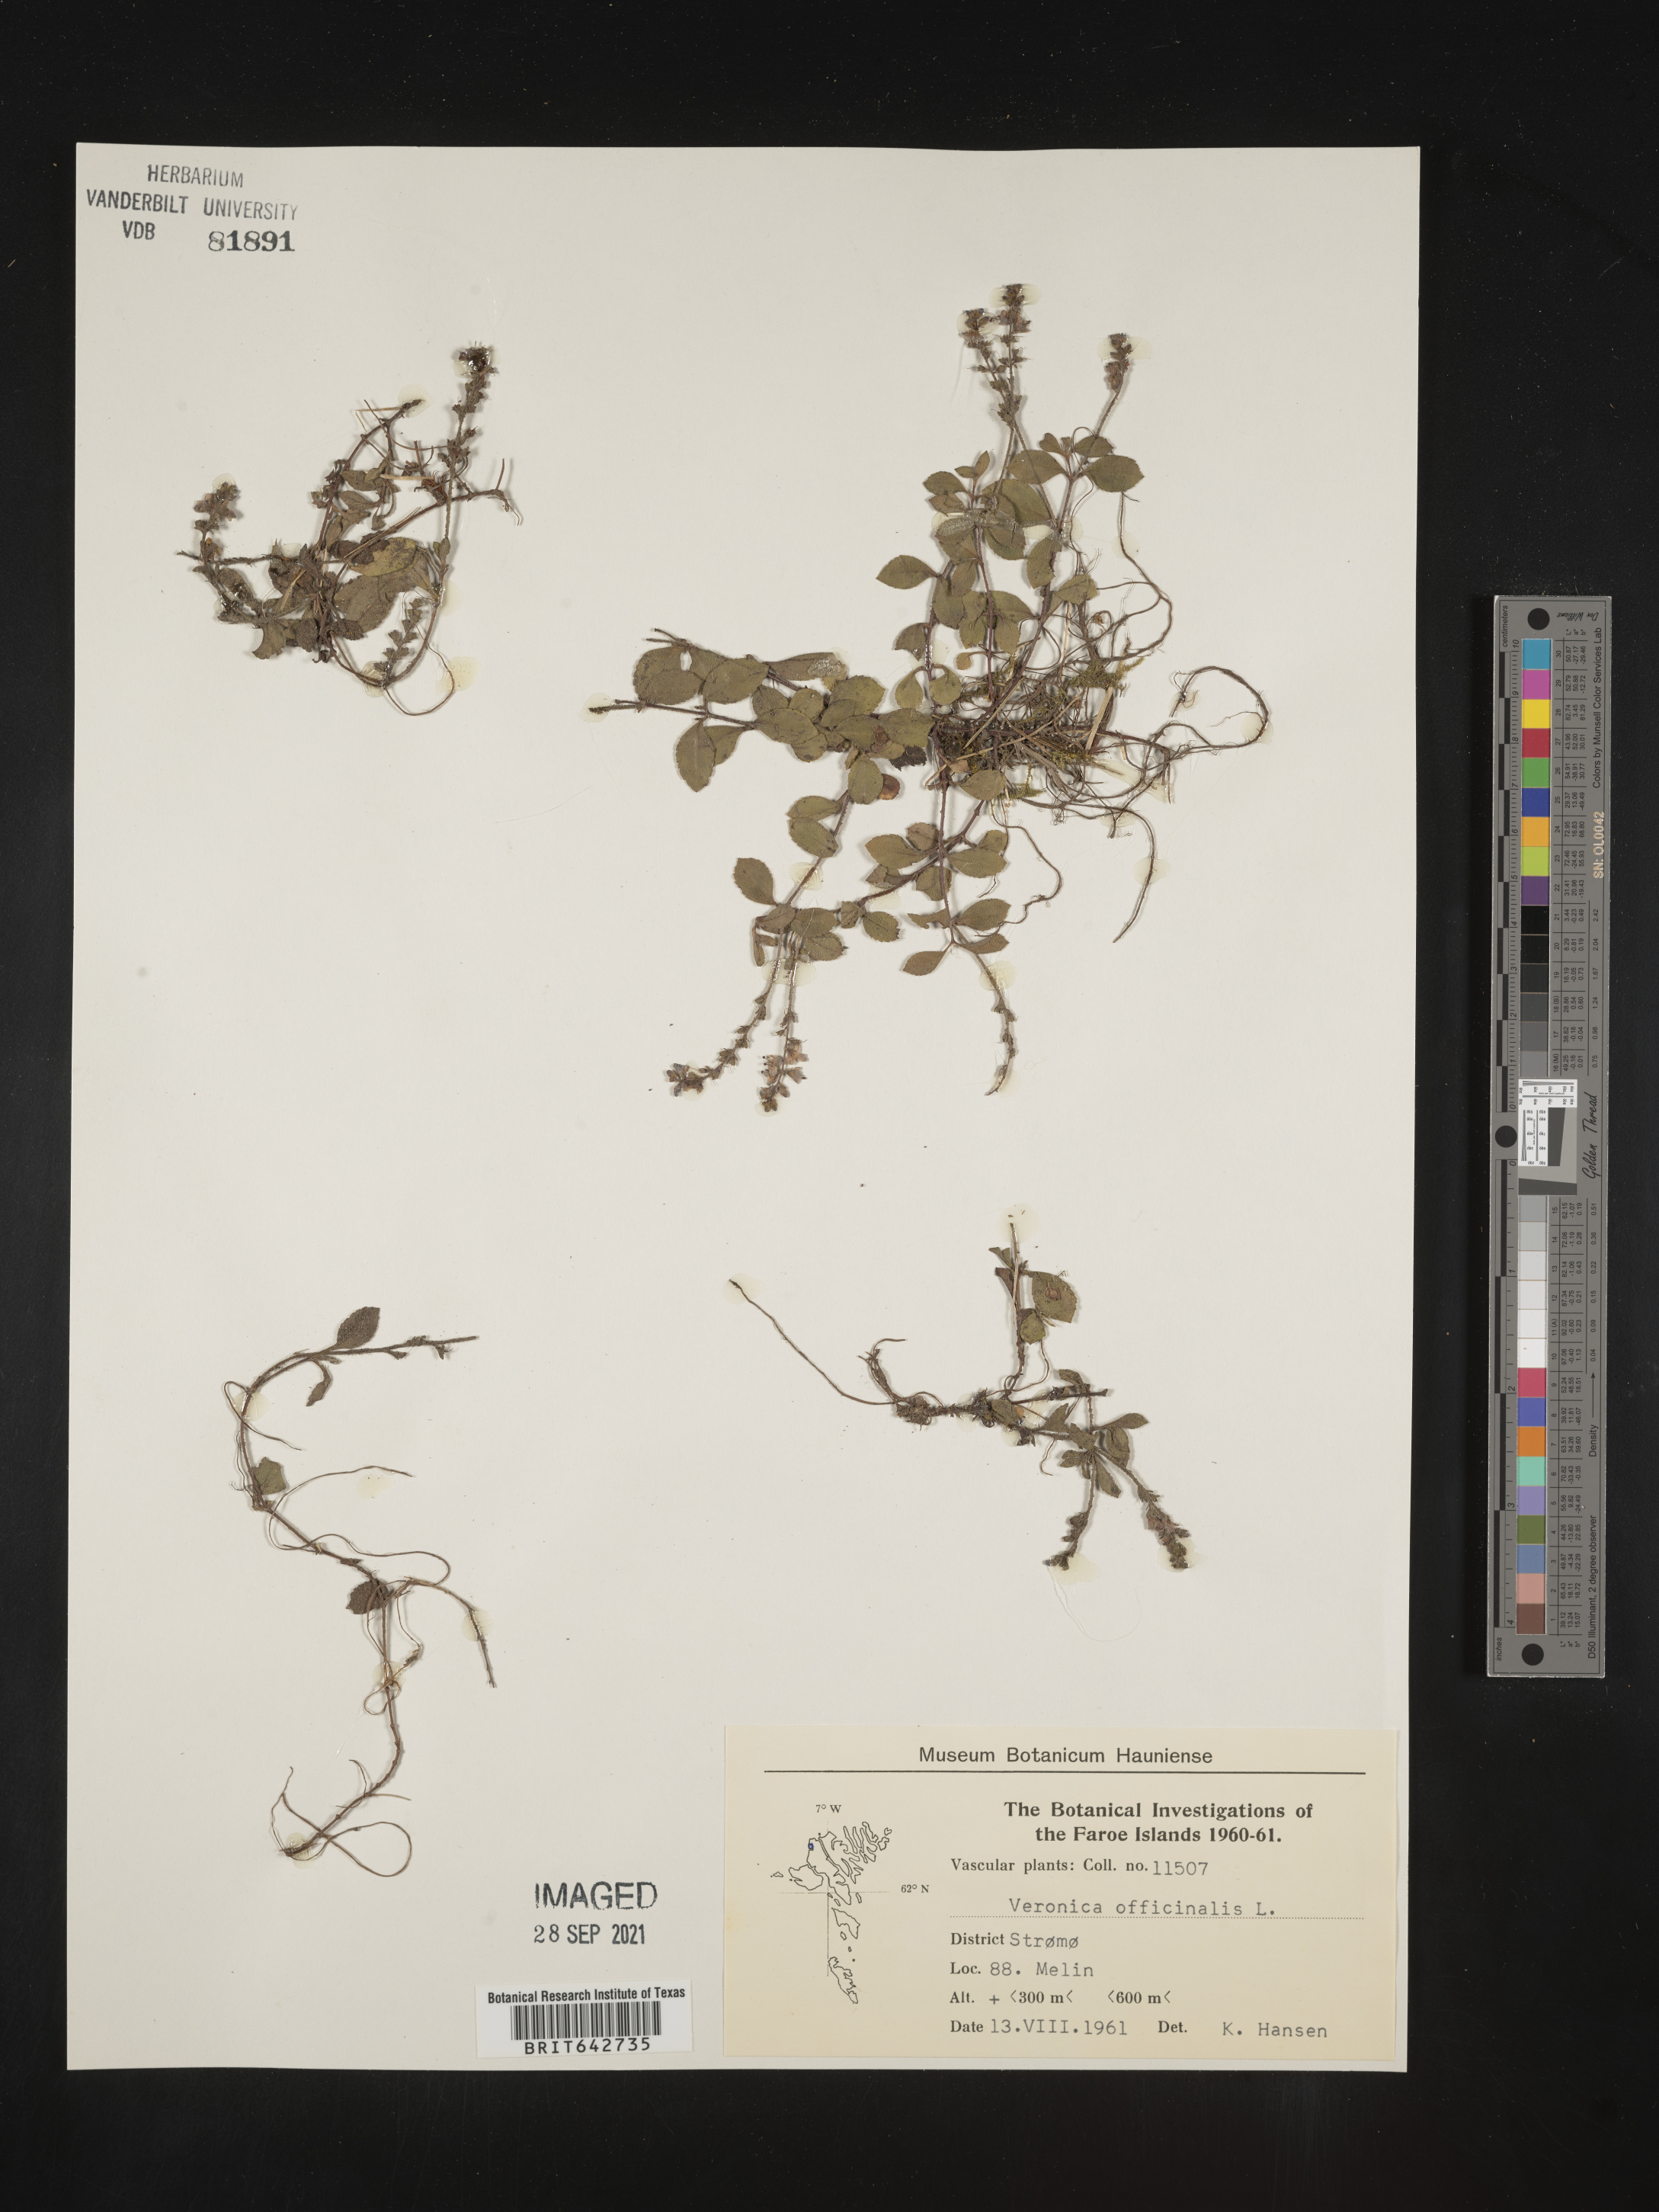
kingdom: Plantae
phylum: Tracheophyta
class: Magnoliopsida
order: Lamiales
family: Plantaginaceae
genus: Veronica
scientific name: Veronica
